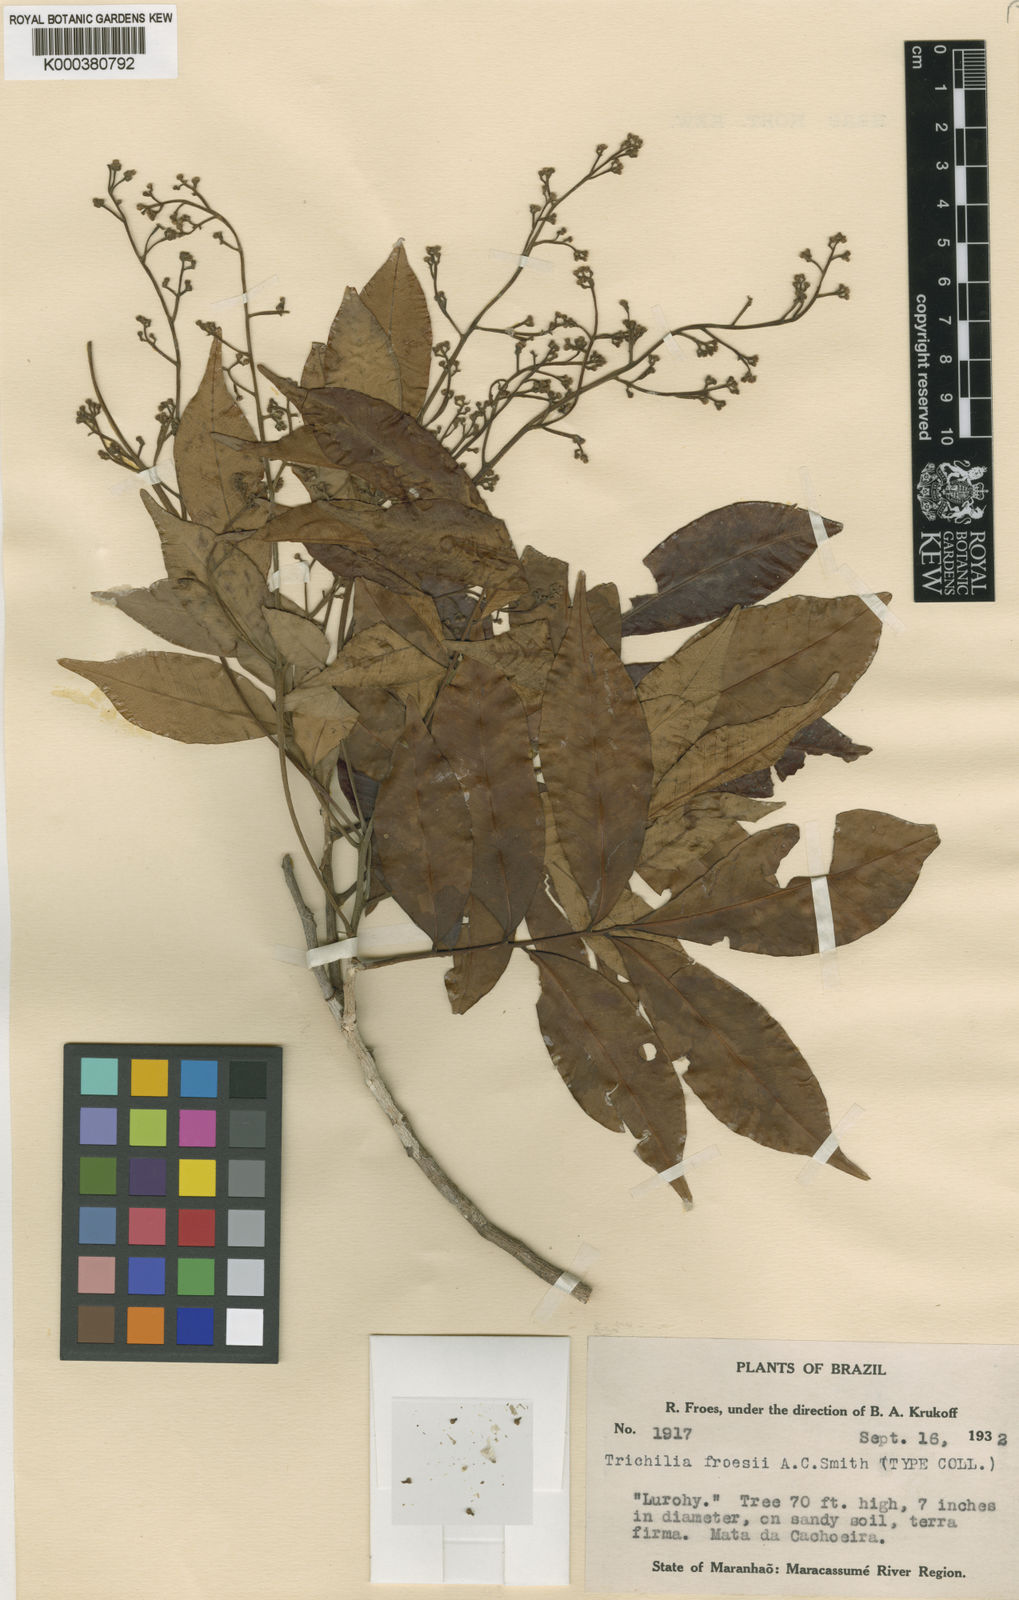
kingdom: Plantae
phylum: Tracheophyta
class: Magnoliopsida
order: Sapindales
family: Meliaceae
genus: Trichilia
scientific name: Trichilia cipo
